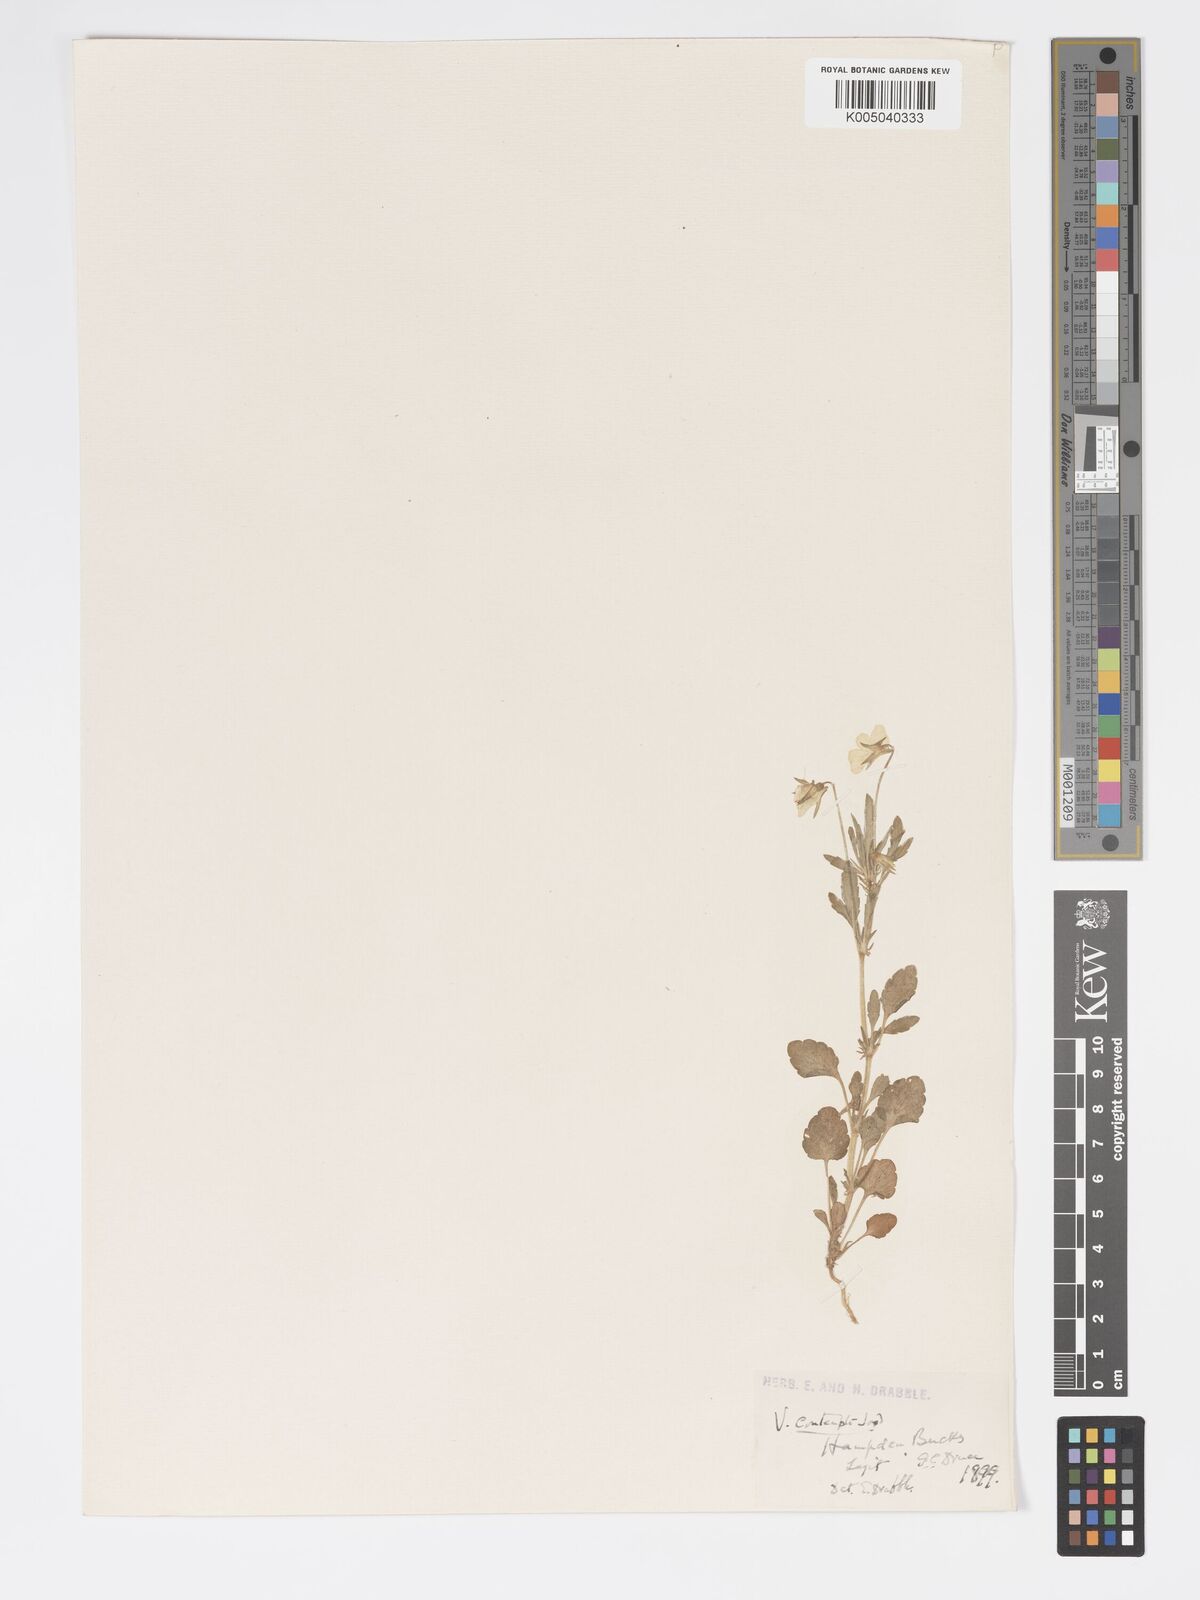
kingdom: Plantae
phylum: Tracheophyta
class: Magnoliopsida
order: Malpighiales
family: Violaceae
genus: Viola
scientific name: Viola arvensis
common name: Field pansy
